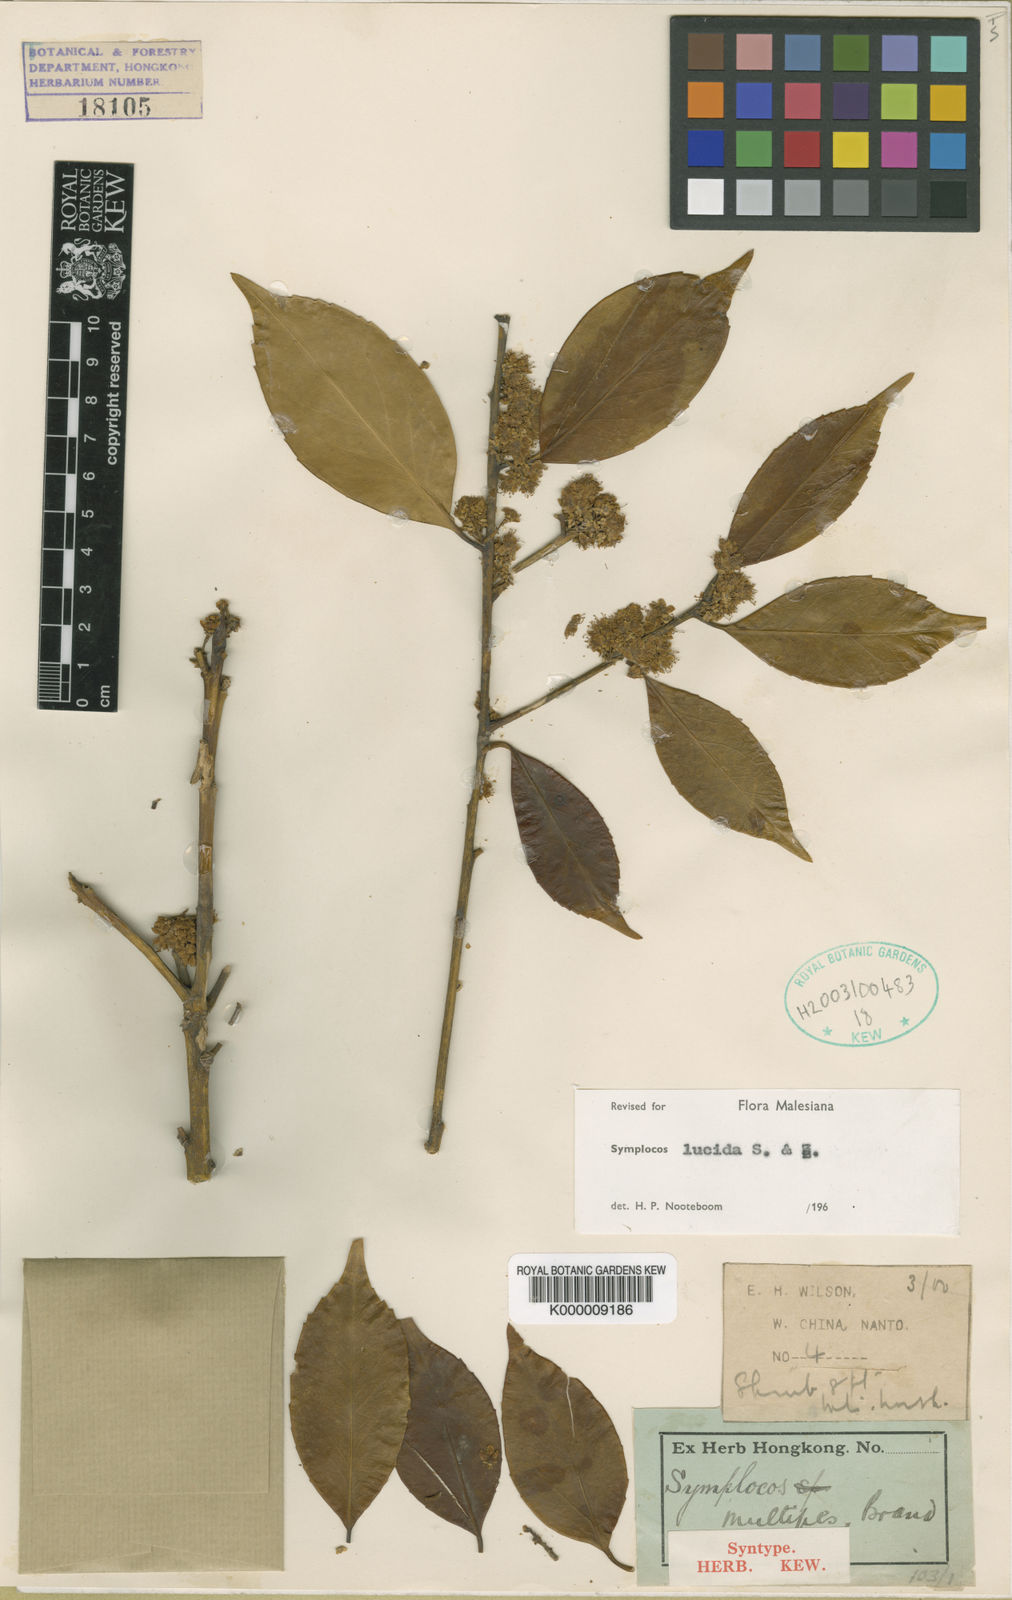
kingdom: Plantae
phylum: Tracheophyta
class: Magnoliopsida
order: Ericales
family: Symplocaceae
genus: Symplocos
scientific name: Symplocos
